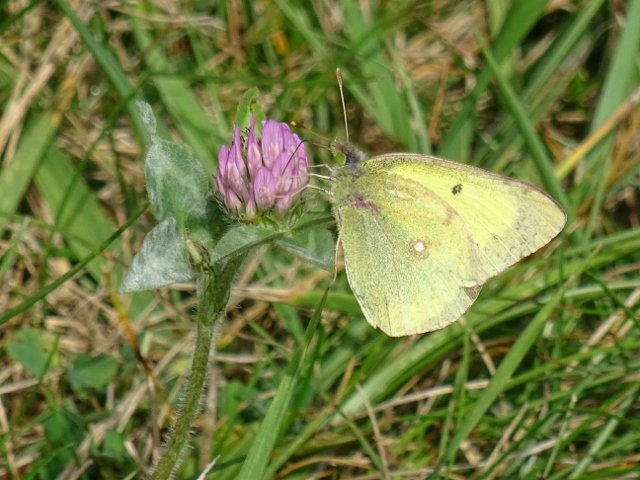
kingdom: Animalia
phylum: Arthropoda
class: Insecta
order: Lepidoptera
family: Pieridae
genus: Colias
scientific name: Colias philodice
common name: Clouded Sulphur
